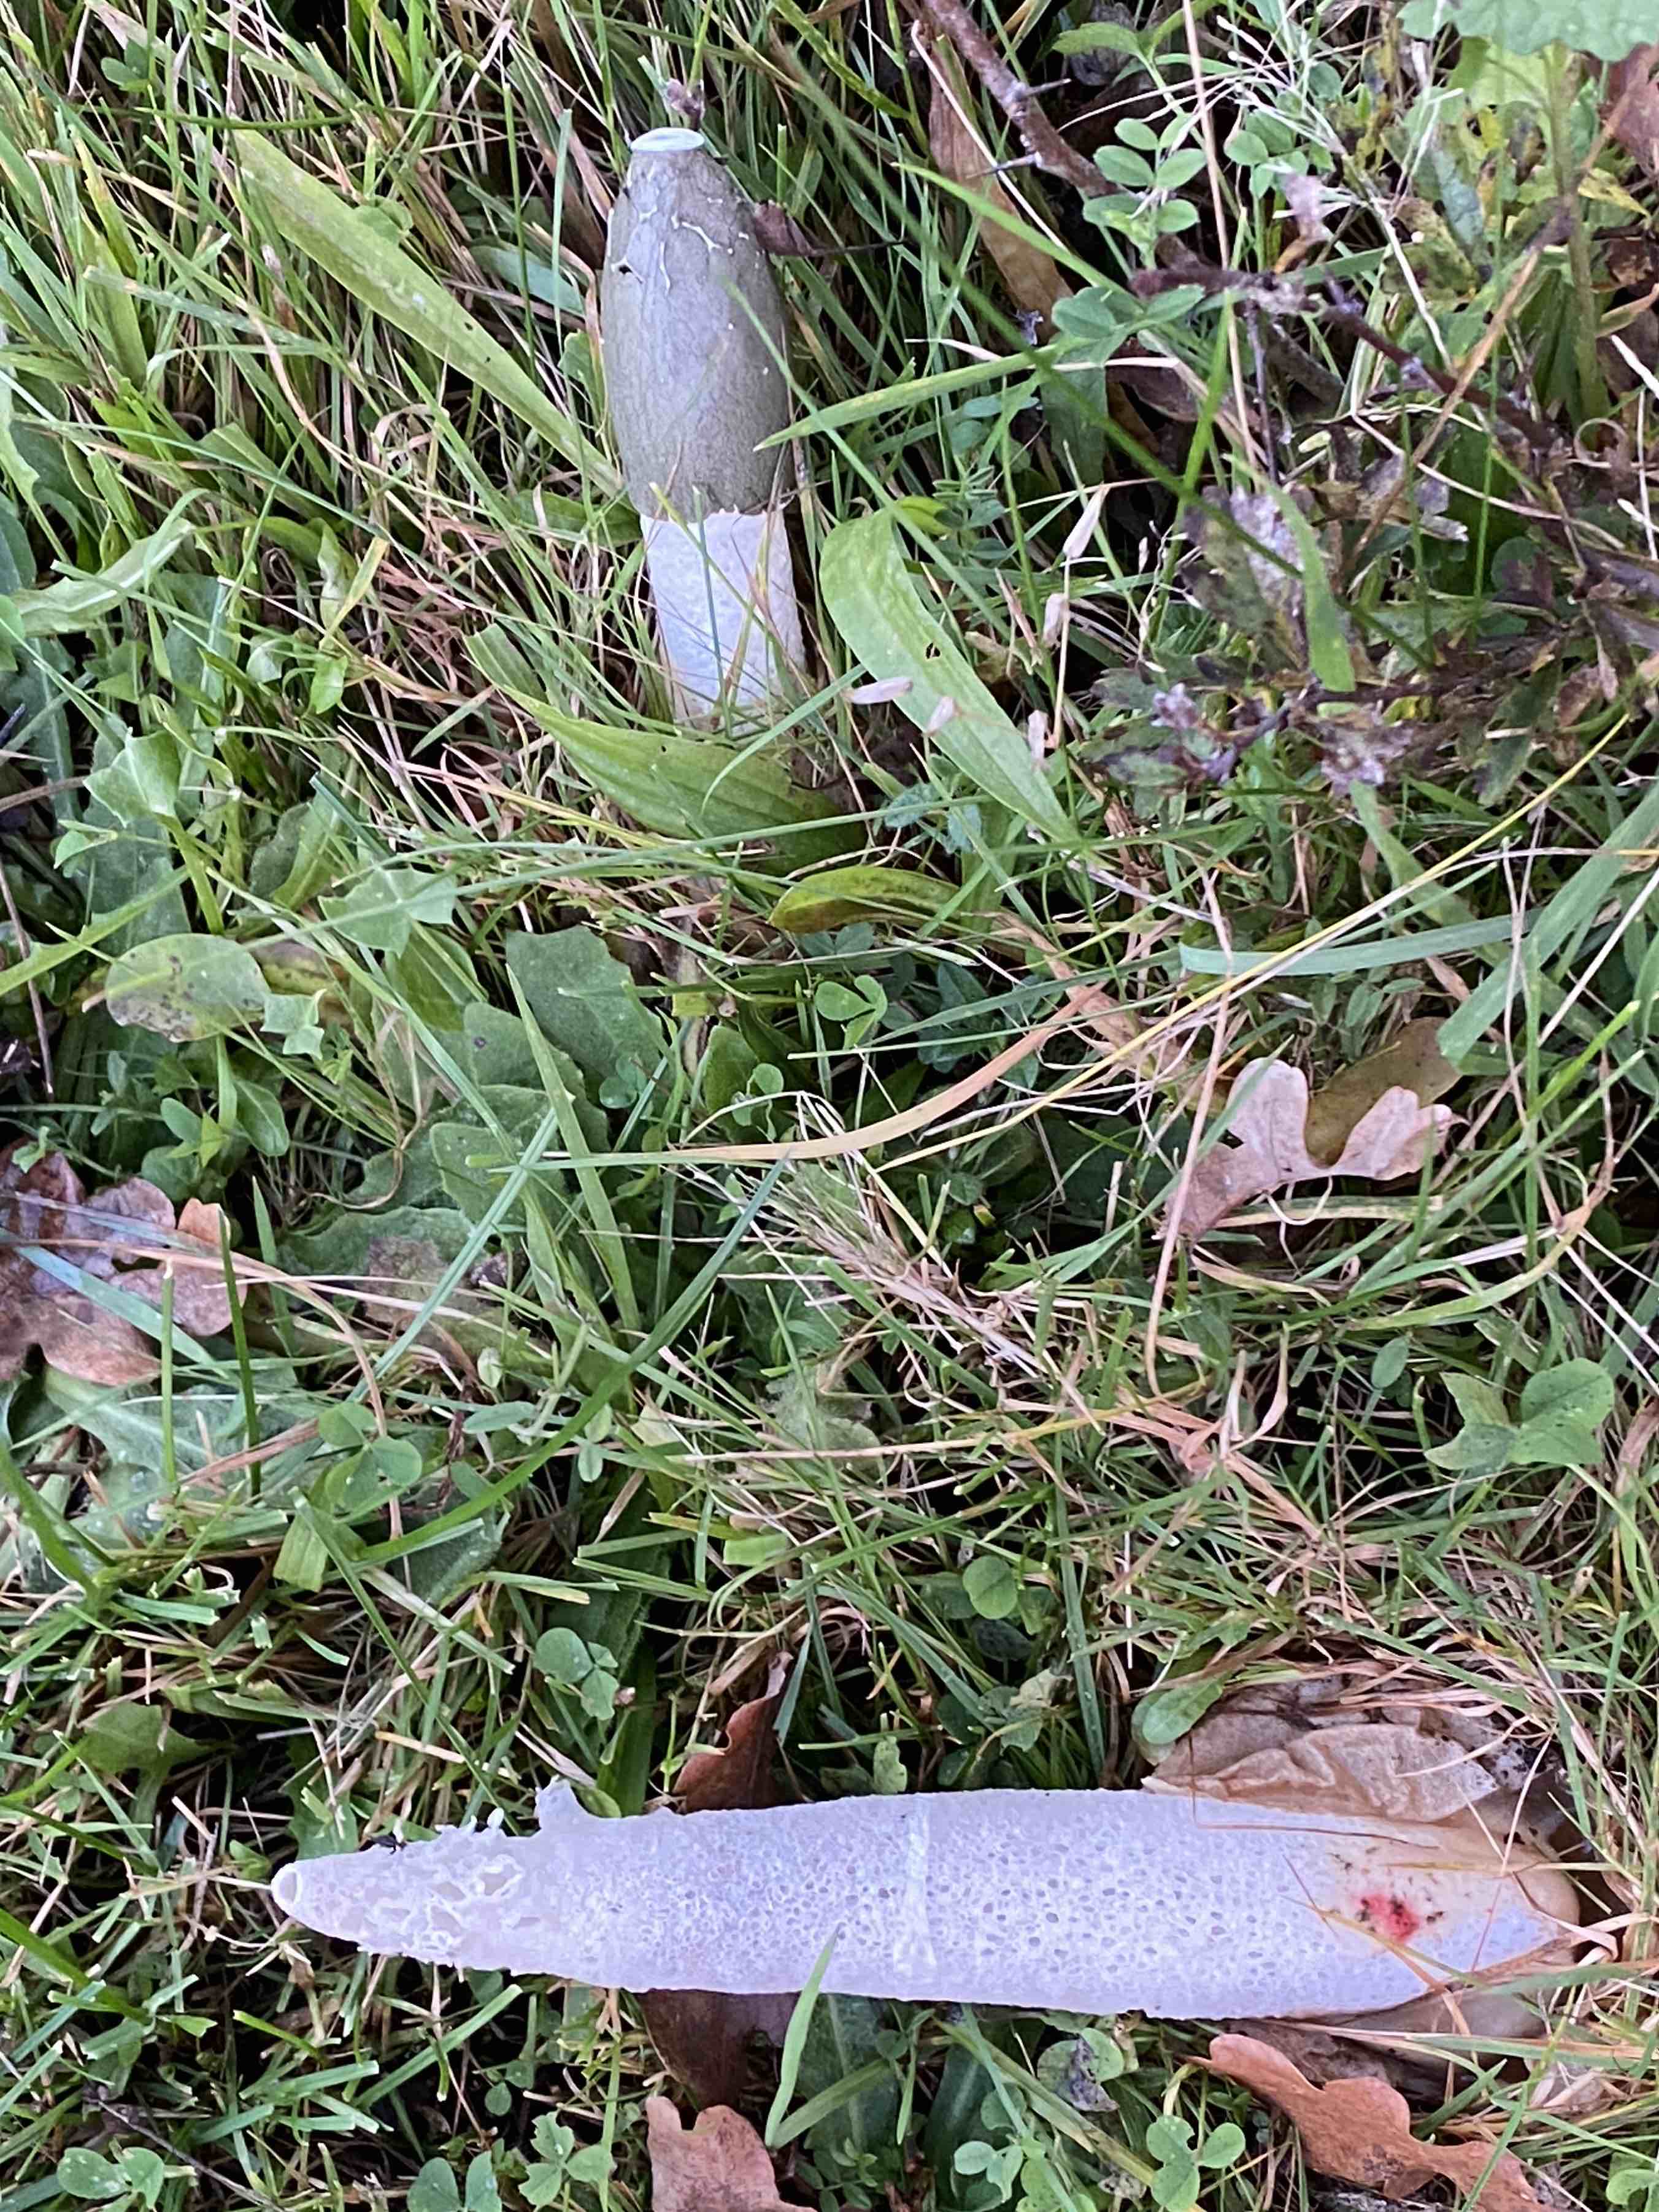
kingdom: Fungi
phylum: Basidiomycota
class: Agaricomycetes
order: Phallales
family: Phallaceae
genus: Phallus
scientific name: Phallus impudicus
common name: almindelig stinksvamp
